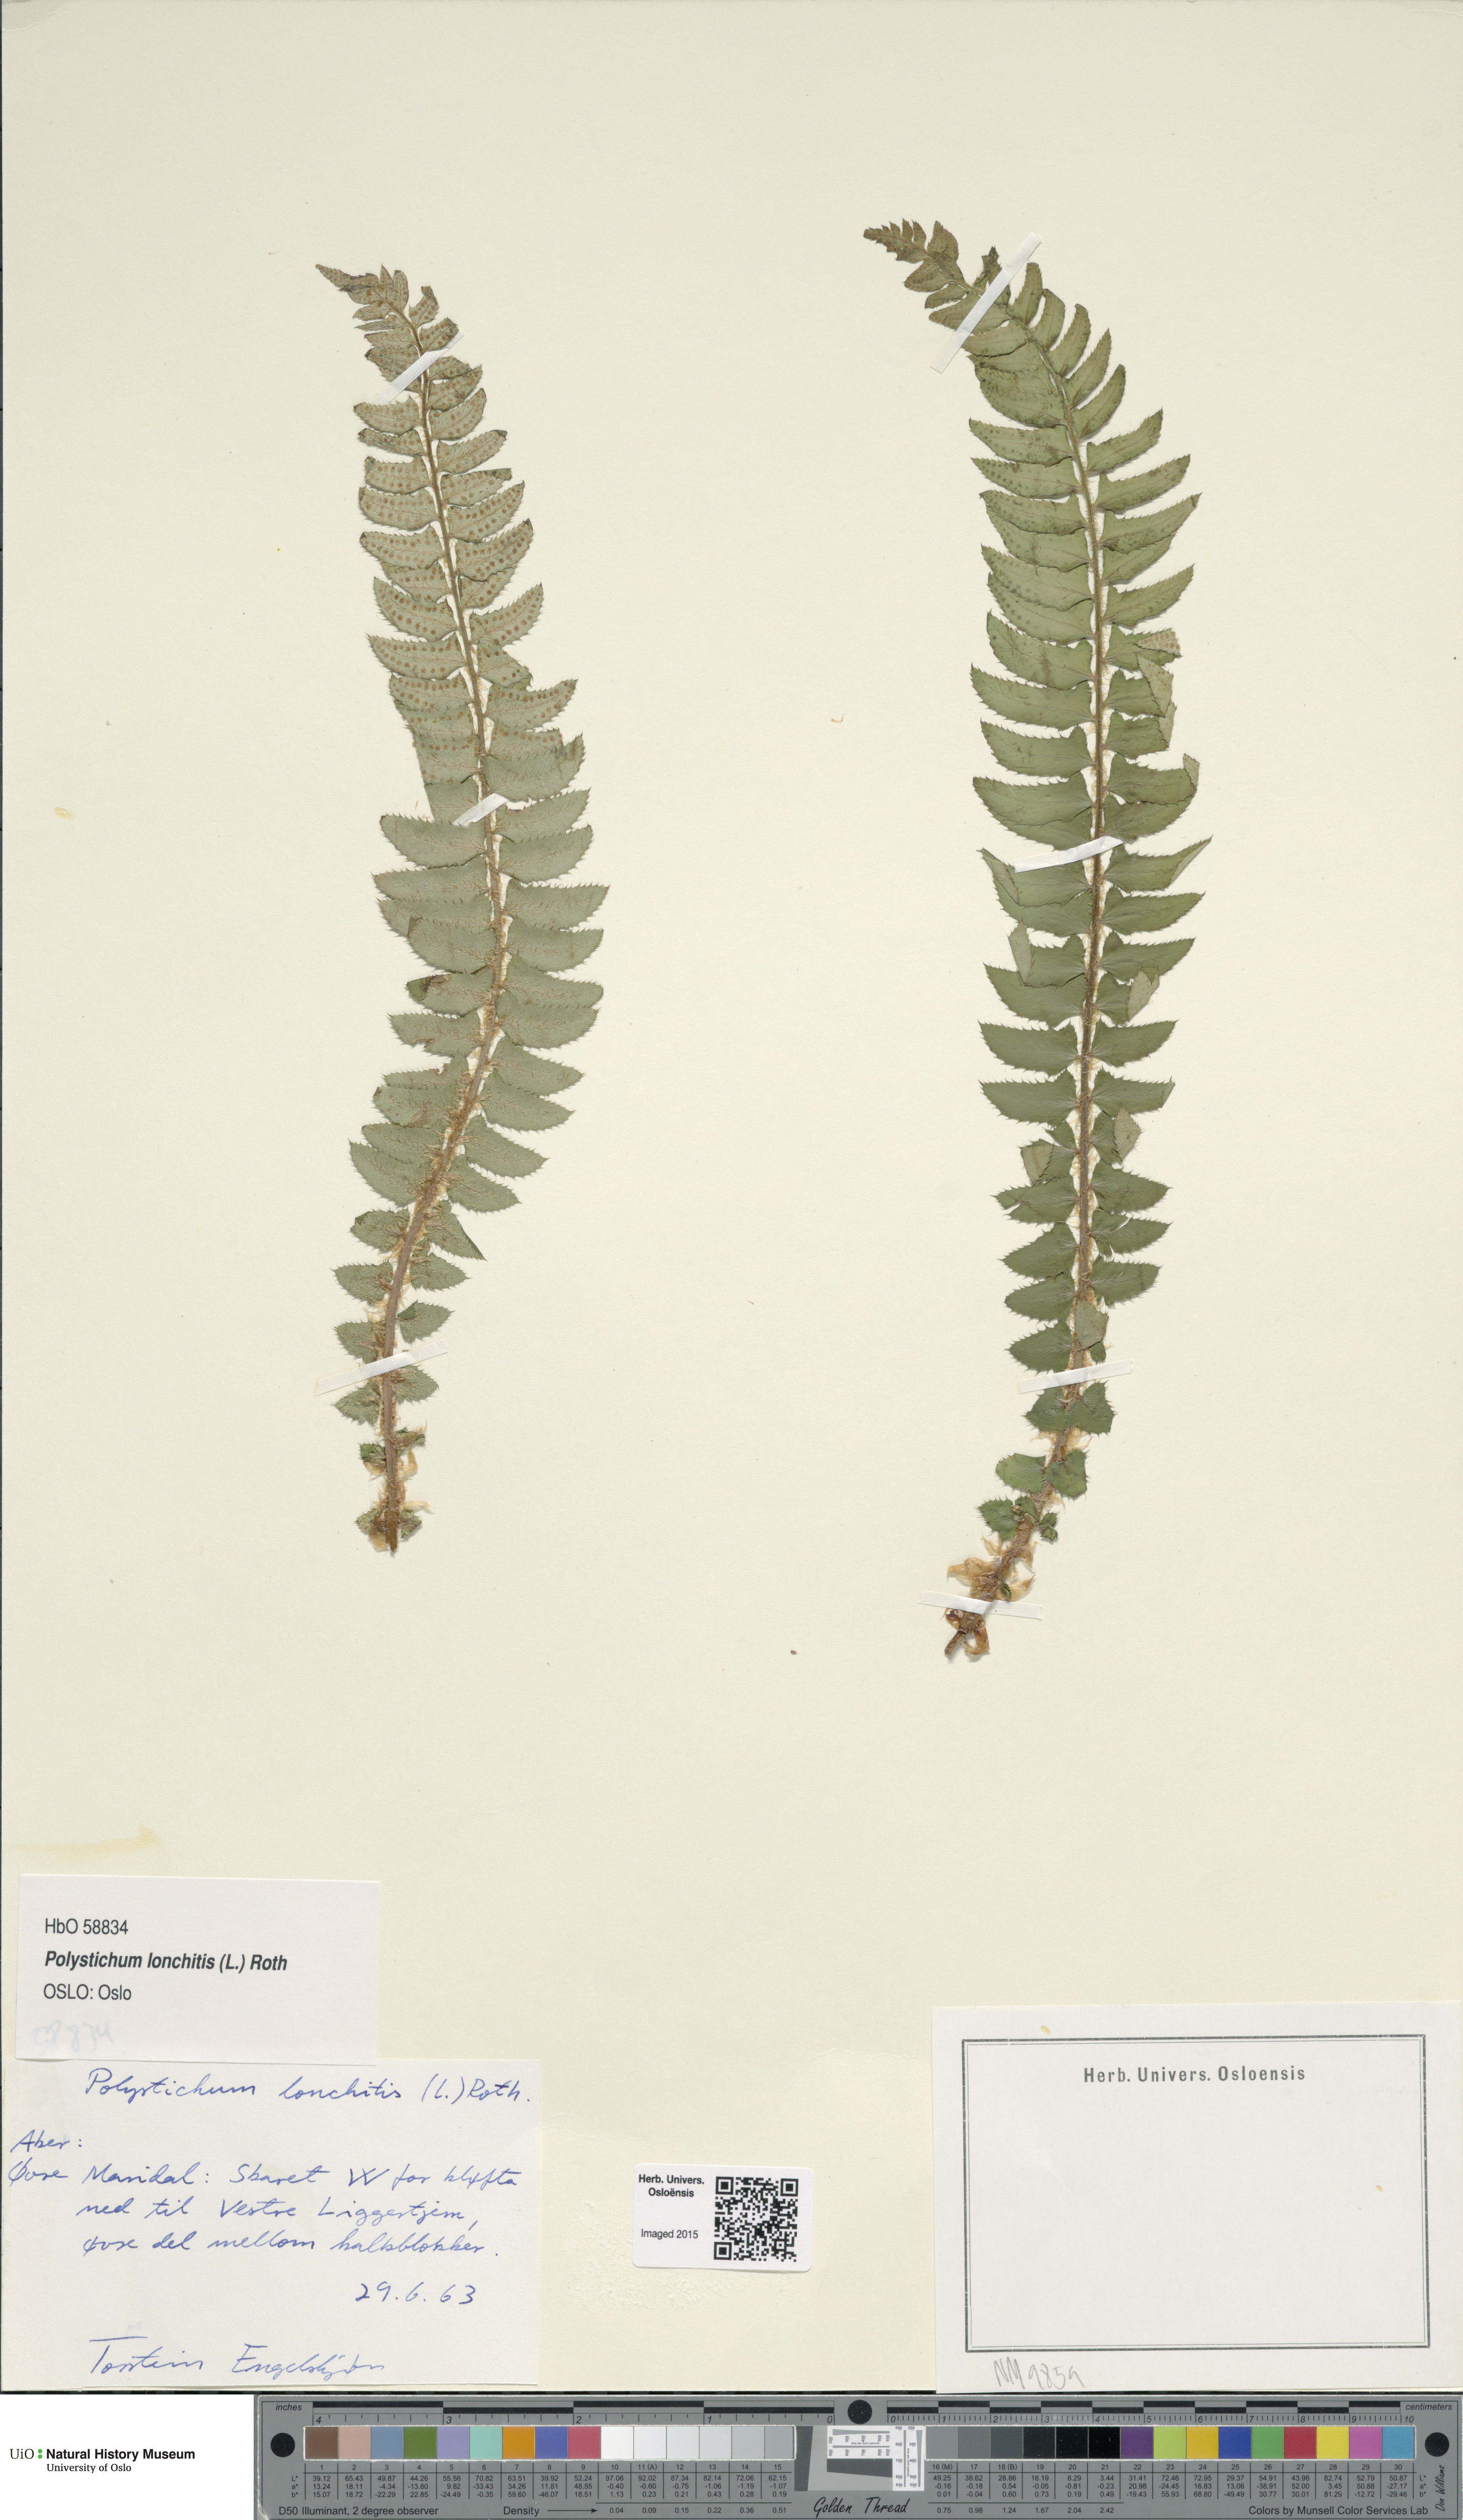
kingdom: Plantae
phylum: Tracheophyta
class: Polypodiopsida
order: Polypodiales
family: Dryopteridaceae
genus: Polystichum
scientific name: Polystichum lonchitis
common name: Holly fern
